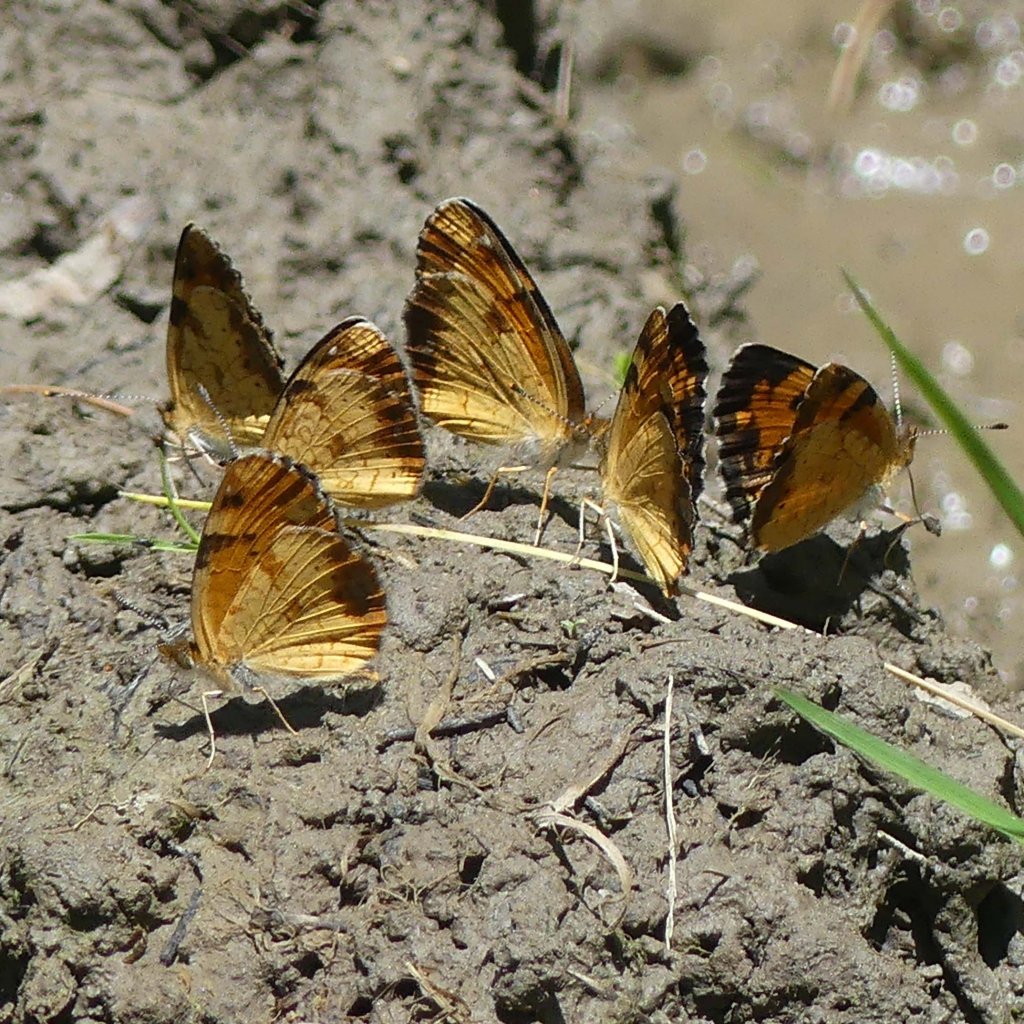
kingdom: Animalia
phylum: Arthropoda
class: Insecta
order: Lepidoptera
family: Nymphalidae
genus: Phyciodes
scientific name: Phyciodes
